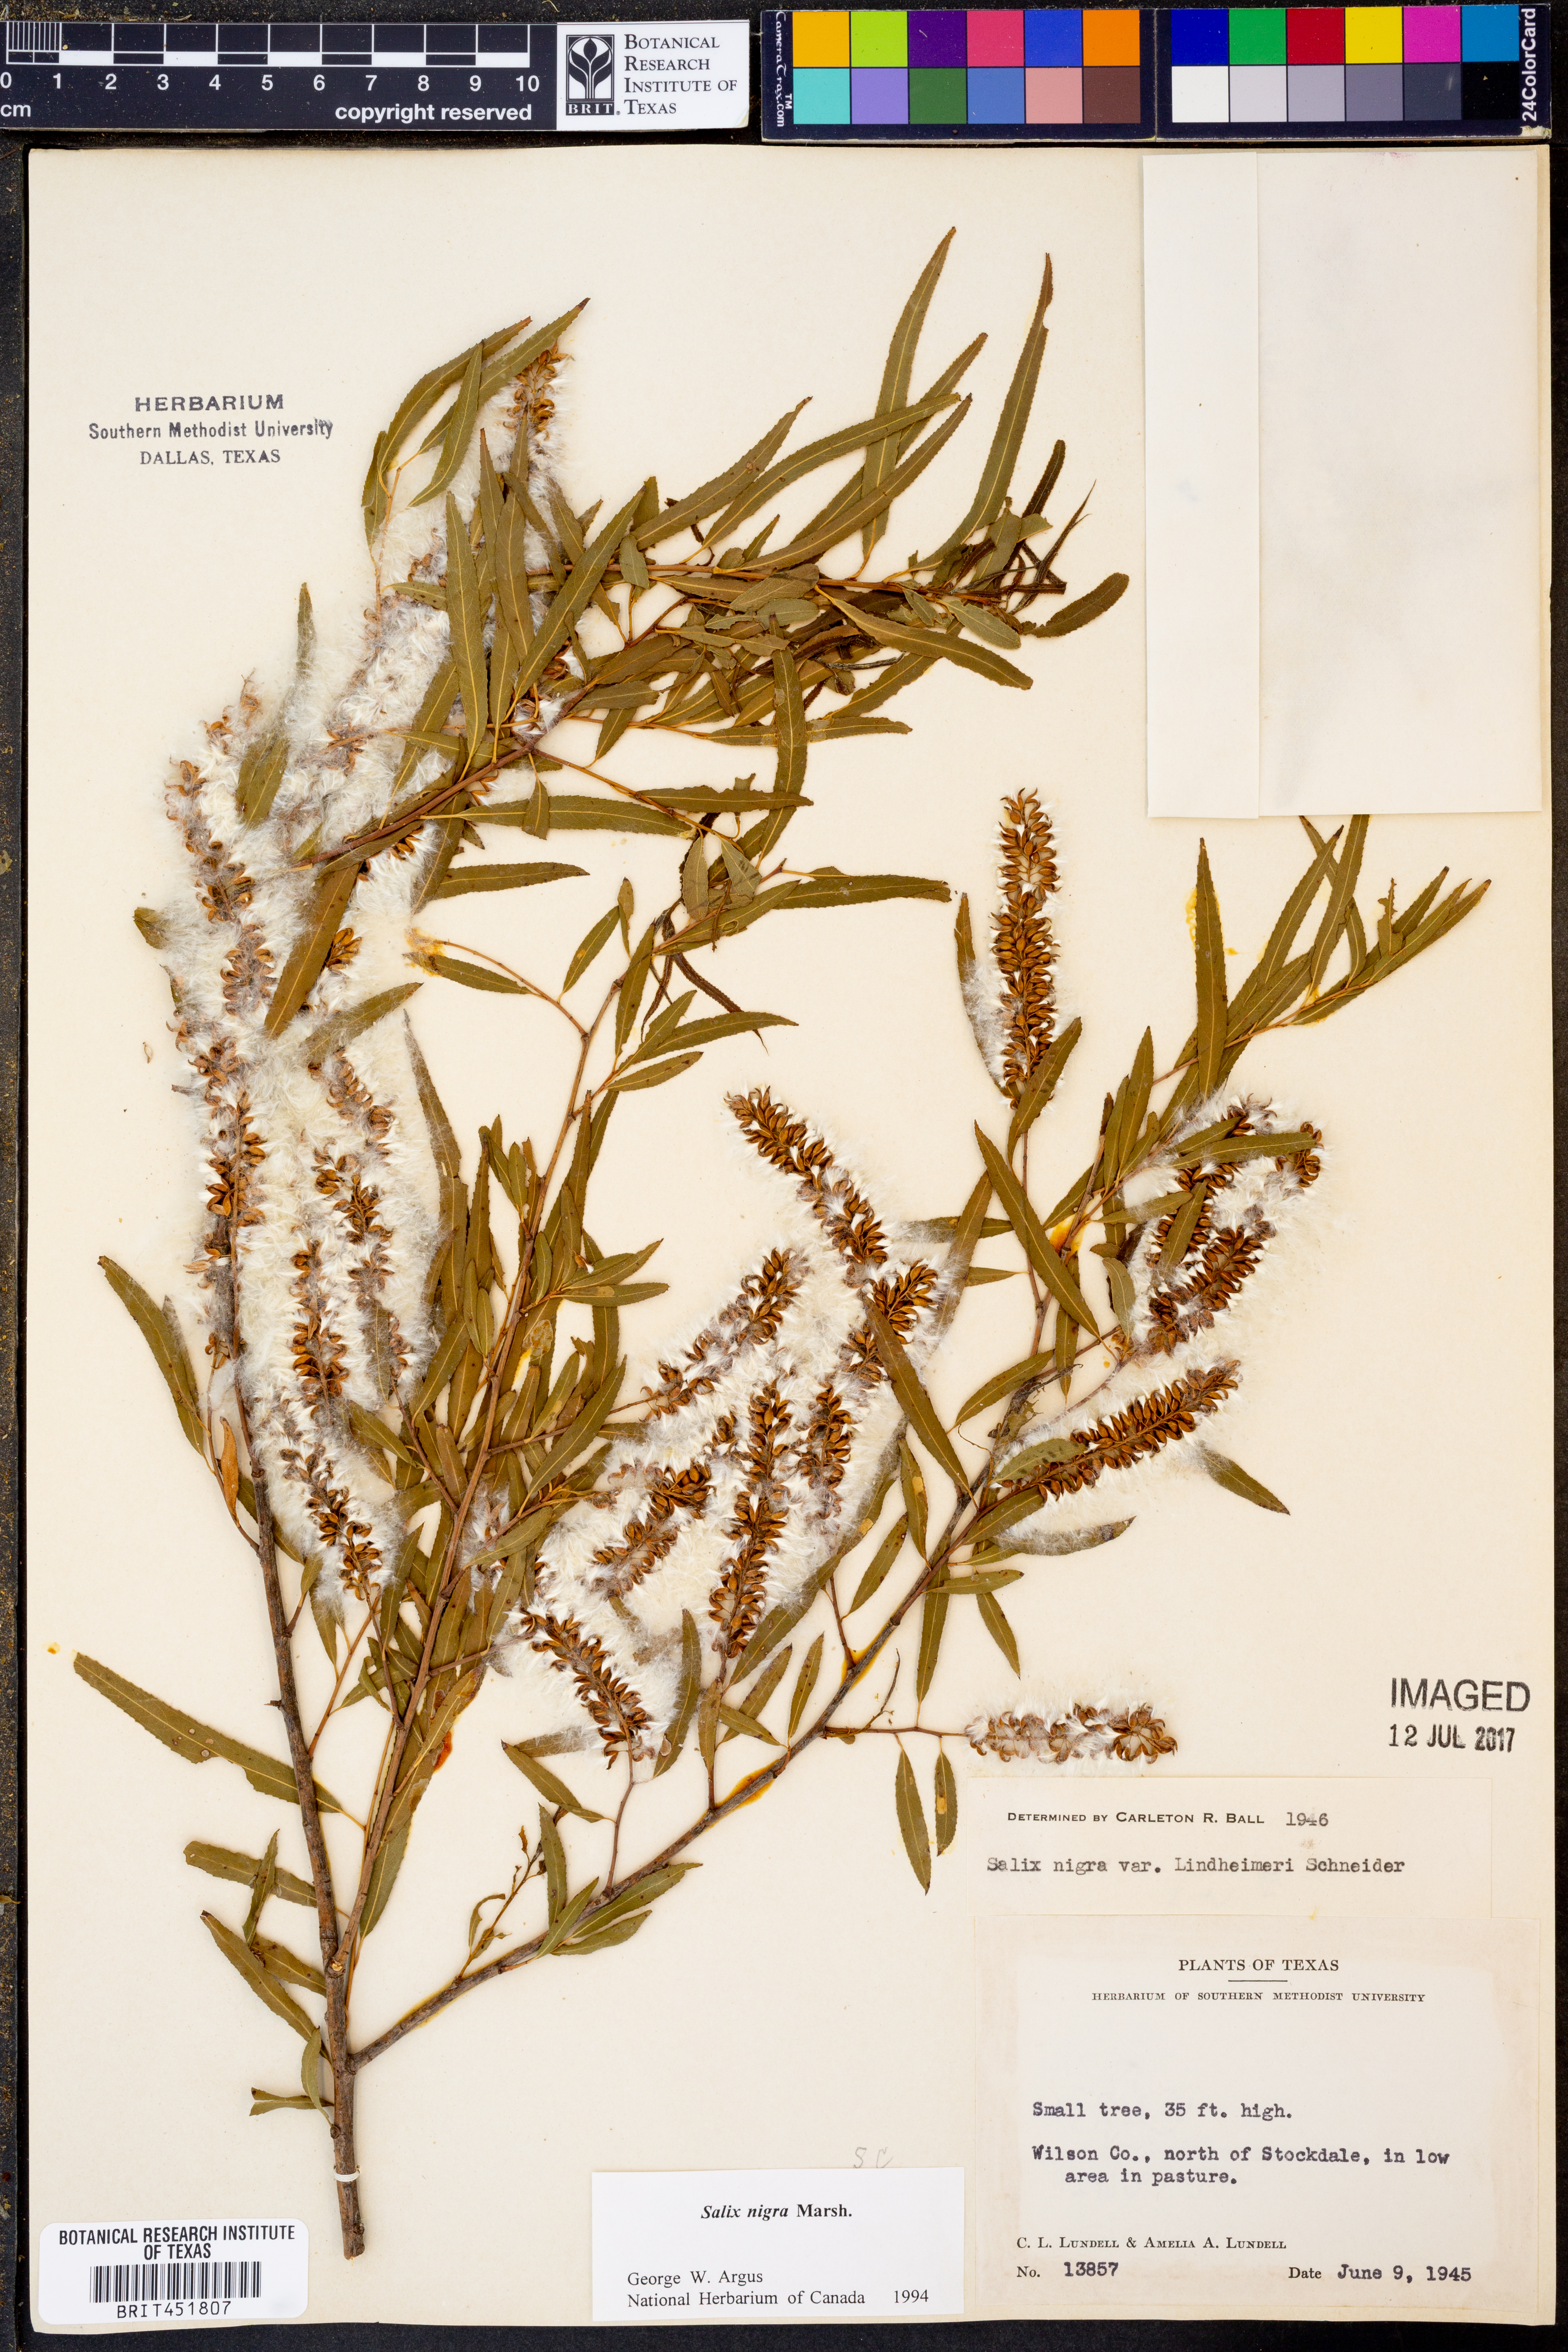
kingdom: Plantae
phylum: Tracheophyta
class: Magnoliopsida
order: Malpighiales
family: Salicaceae
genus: Salix
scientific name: Salix nigra
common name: Black willow
